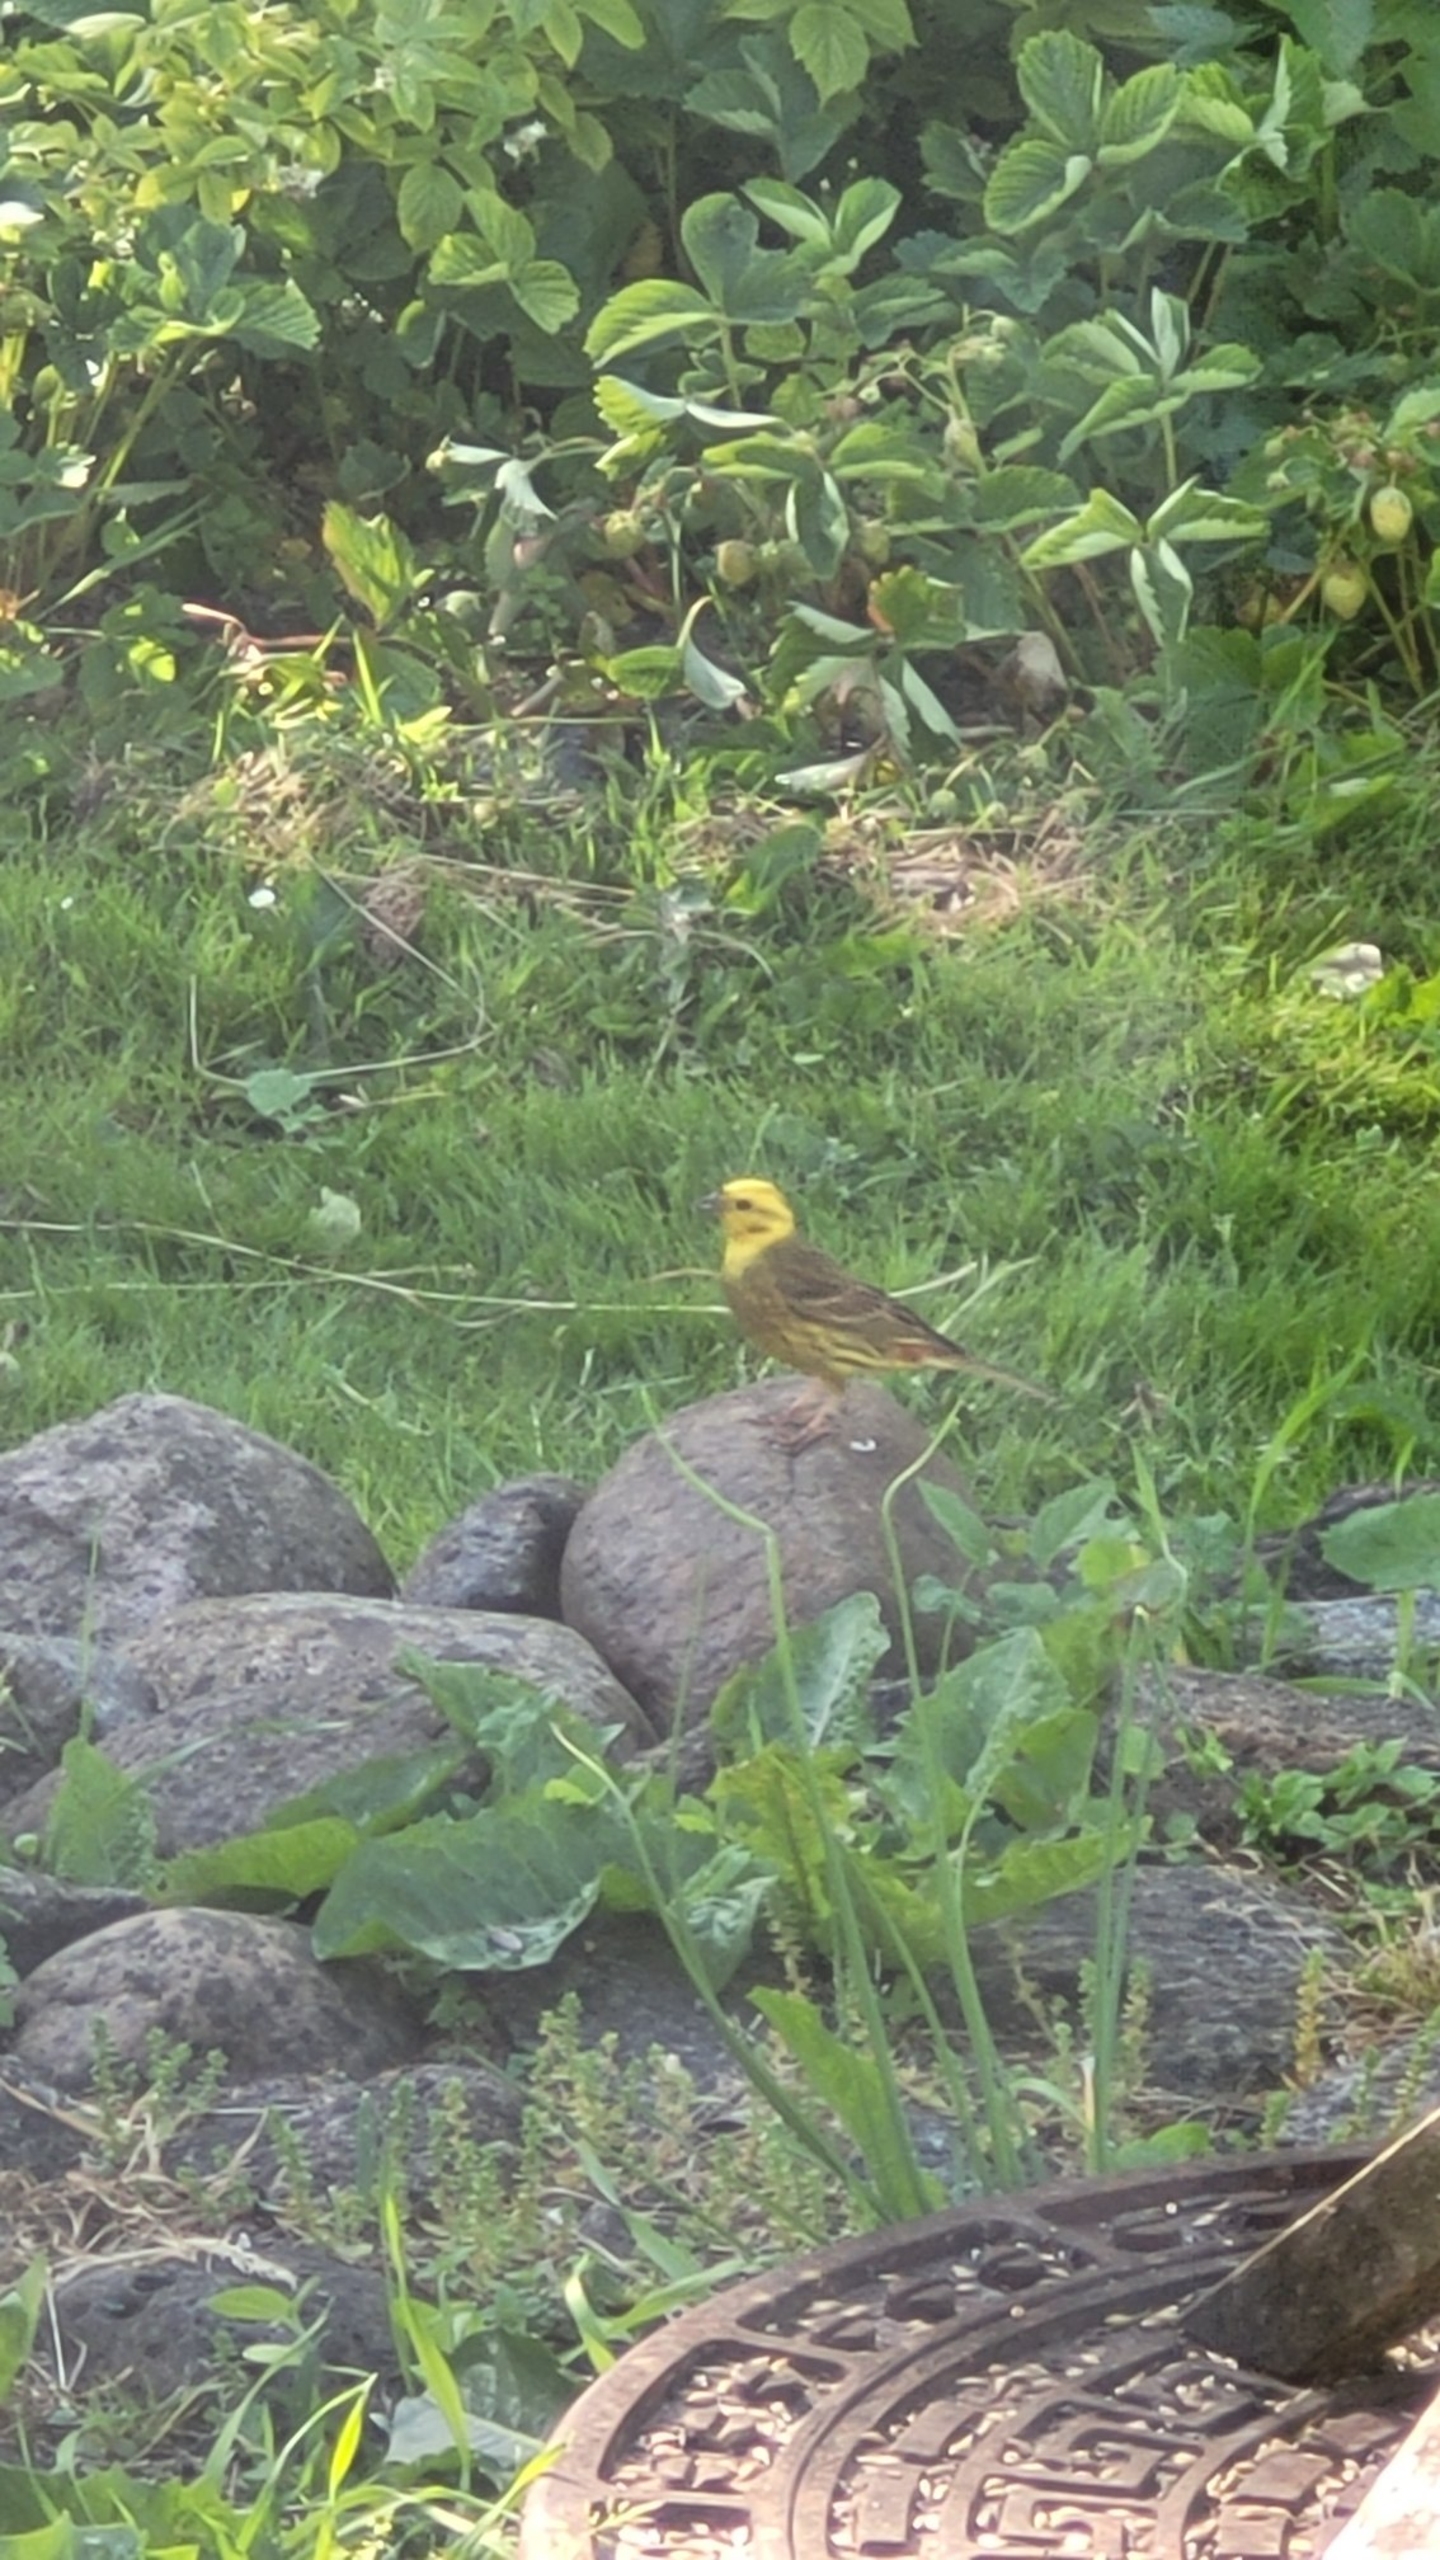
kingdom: Animalia
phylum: Chordata
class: Aves
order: Passeriformes
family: Emberizidae
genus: Emberiza
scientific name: Emberiza citrinella
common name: Gulspurv
